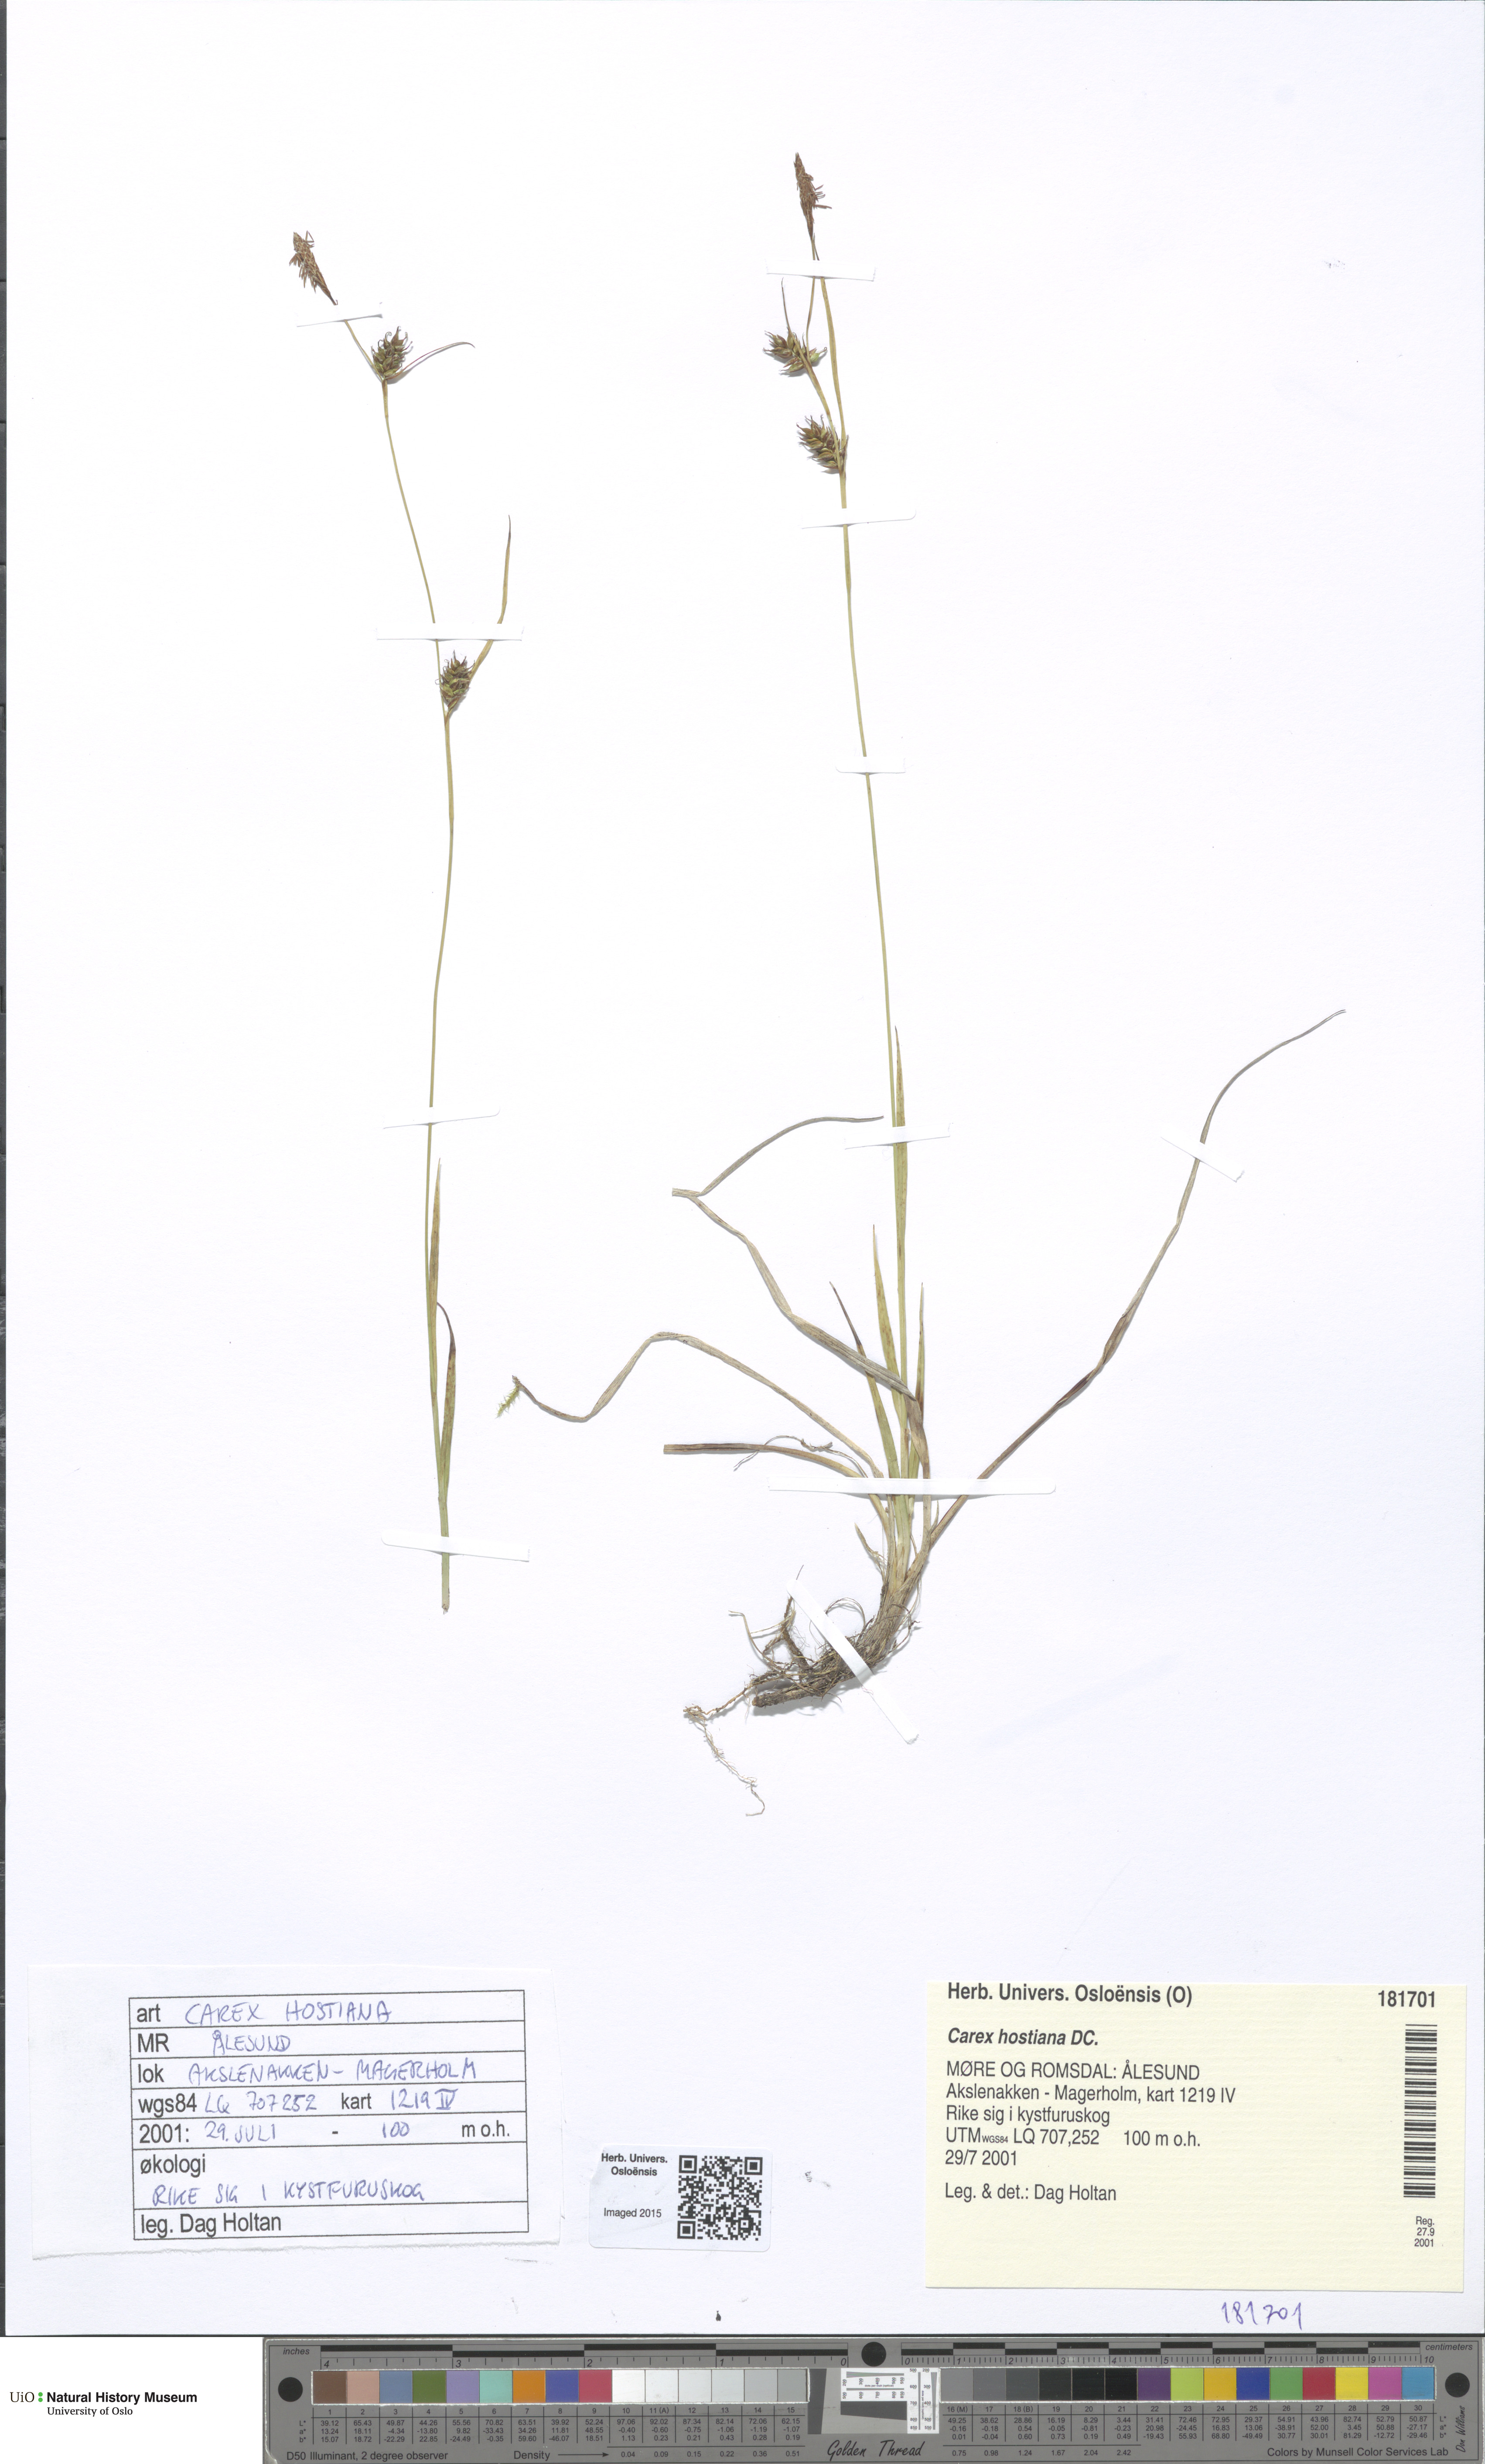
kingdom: Plantae
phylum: Tracheophyta
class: Liliopsida
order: Poales
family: Cyperaceae
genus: Carex
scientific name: Carex hostiana
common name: Tawny sedge
